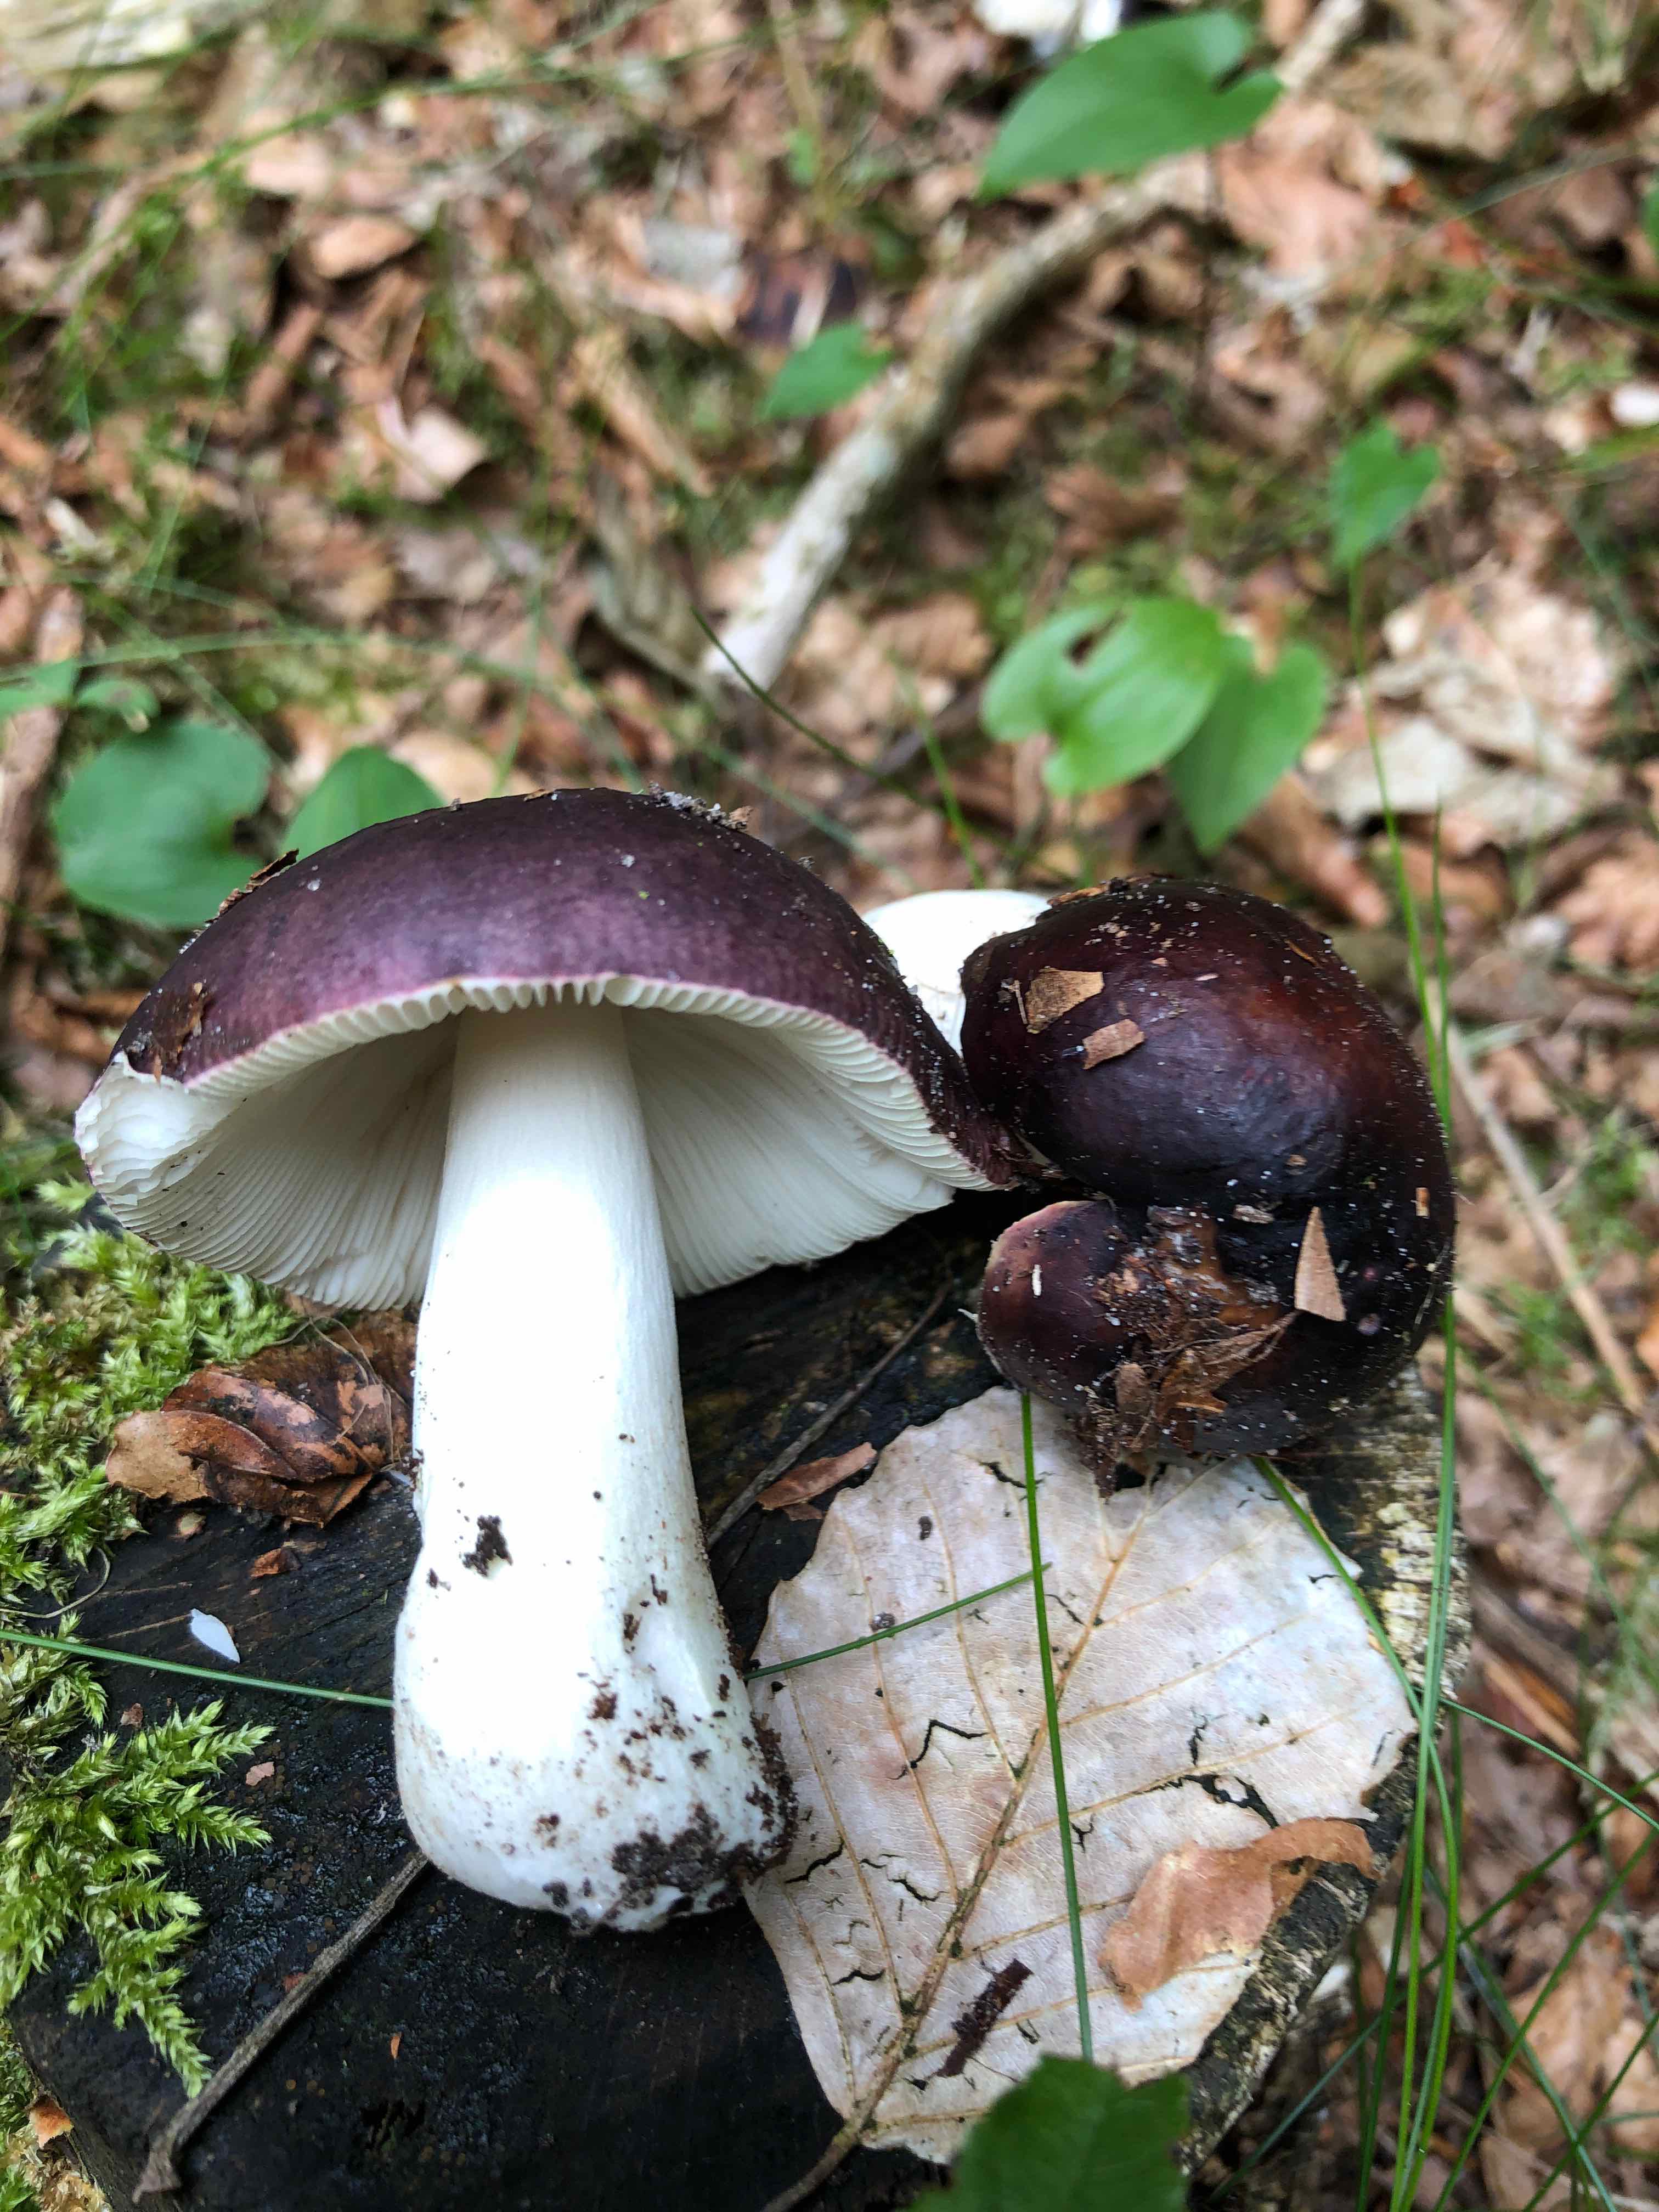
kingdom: Fungi
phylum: Basidiomycota
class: Agaricomycetes
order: Russulales
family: Russulaceae
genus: Russula
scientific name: Russula brunneoviolacea
